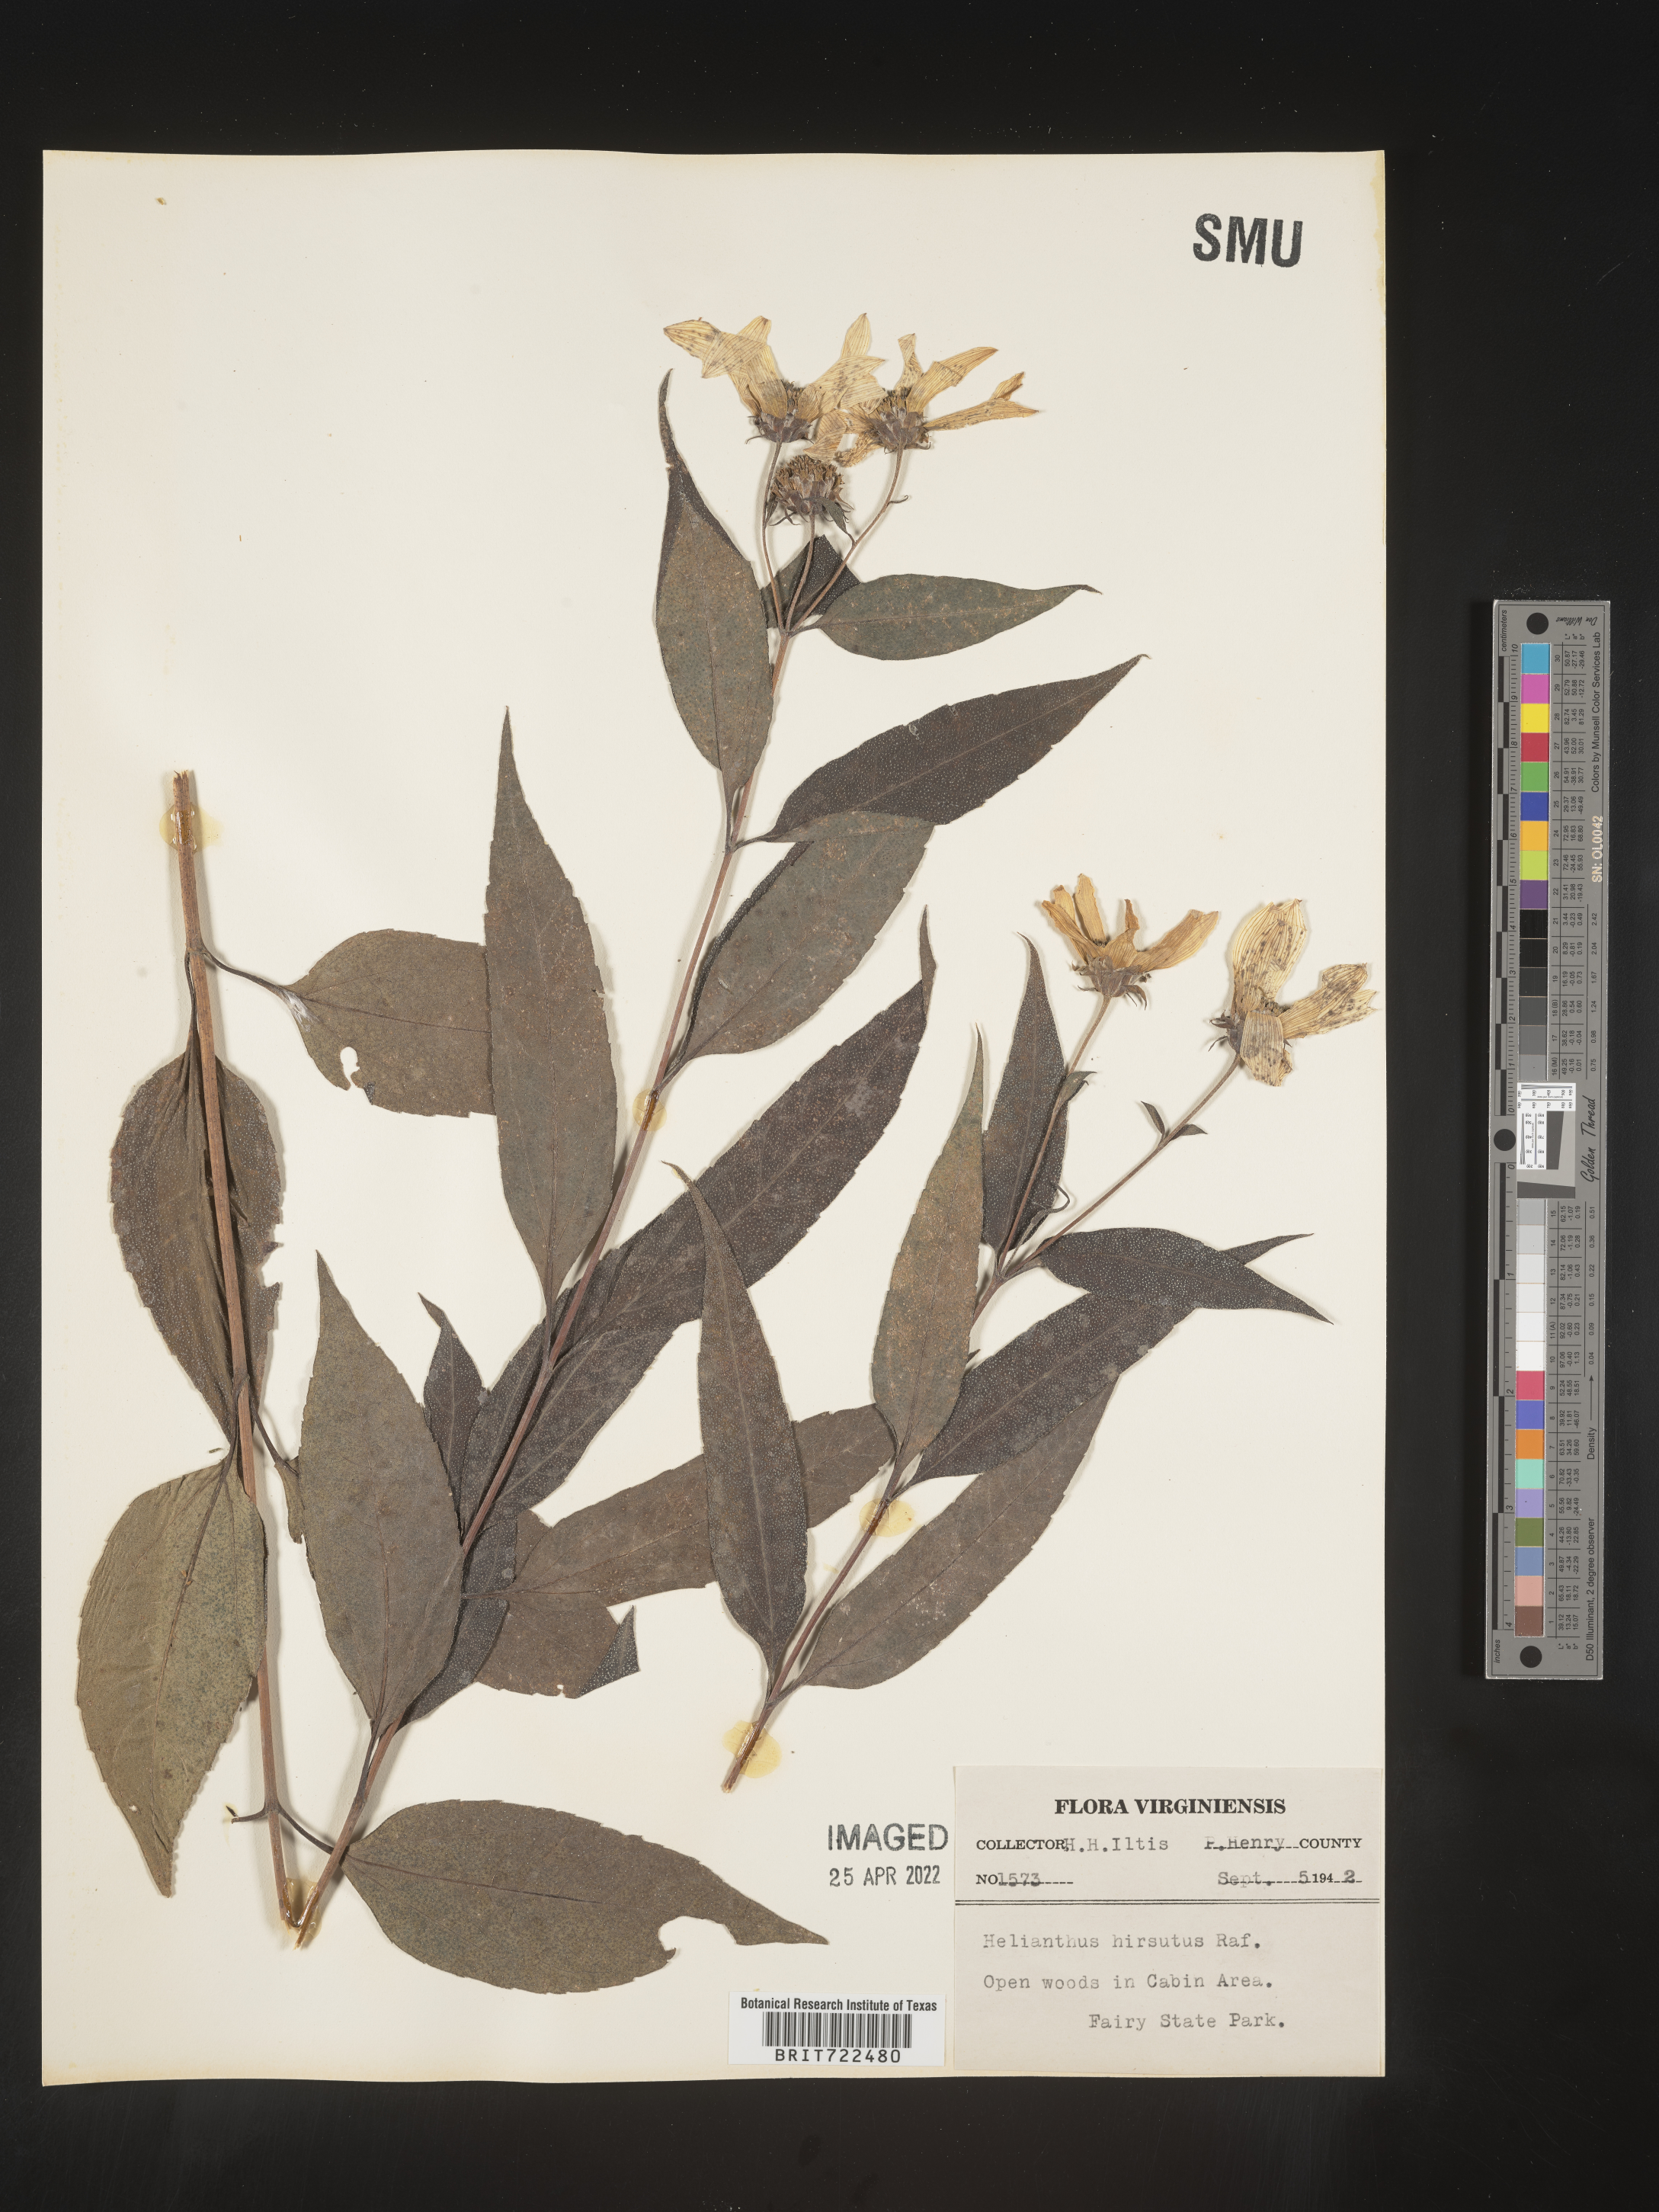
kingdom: Plantae
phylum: Tracheophyta
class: Magnoliopsida
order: Asterales
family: Asteraceae
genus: Helianthus
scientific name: Helianthus hirsutus
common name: Hairy sunflower
